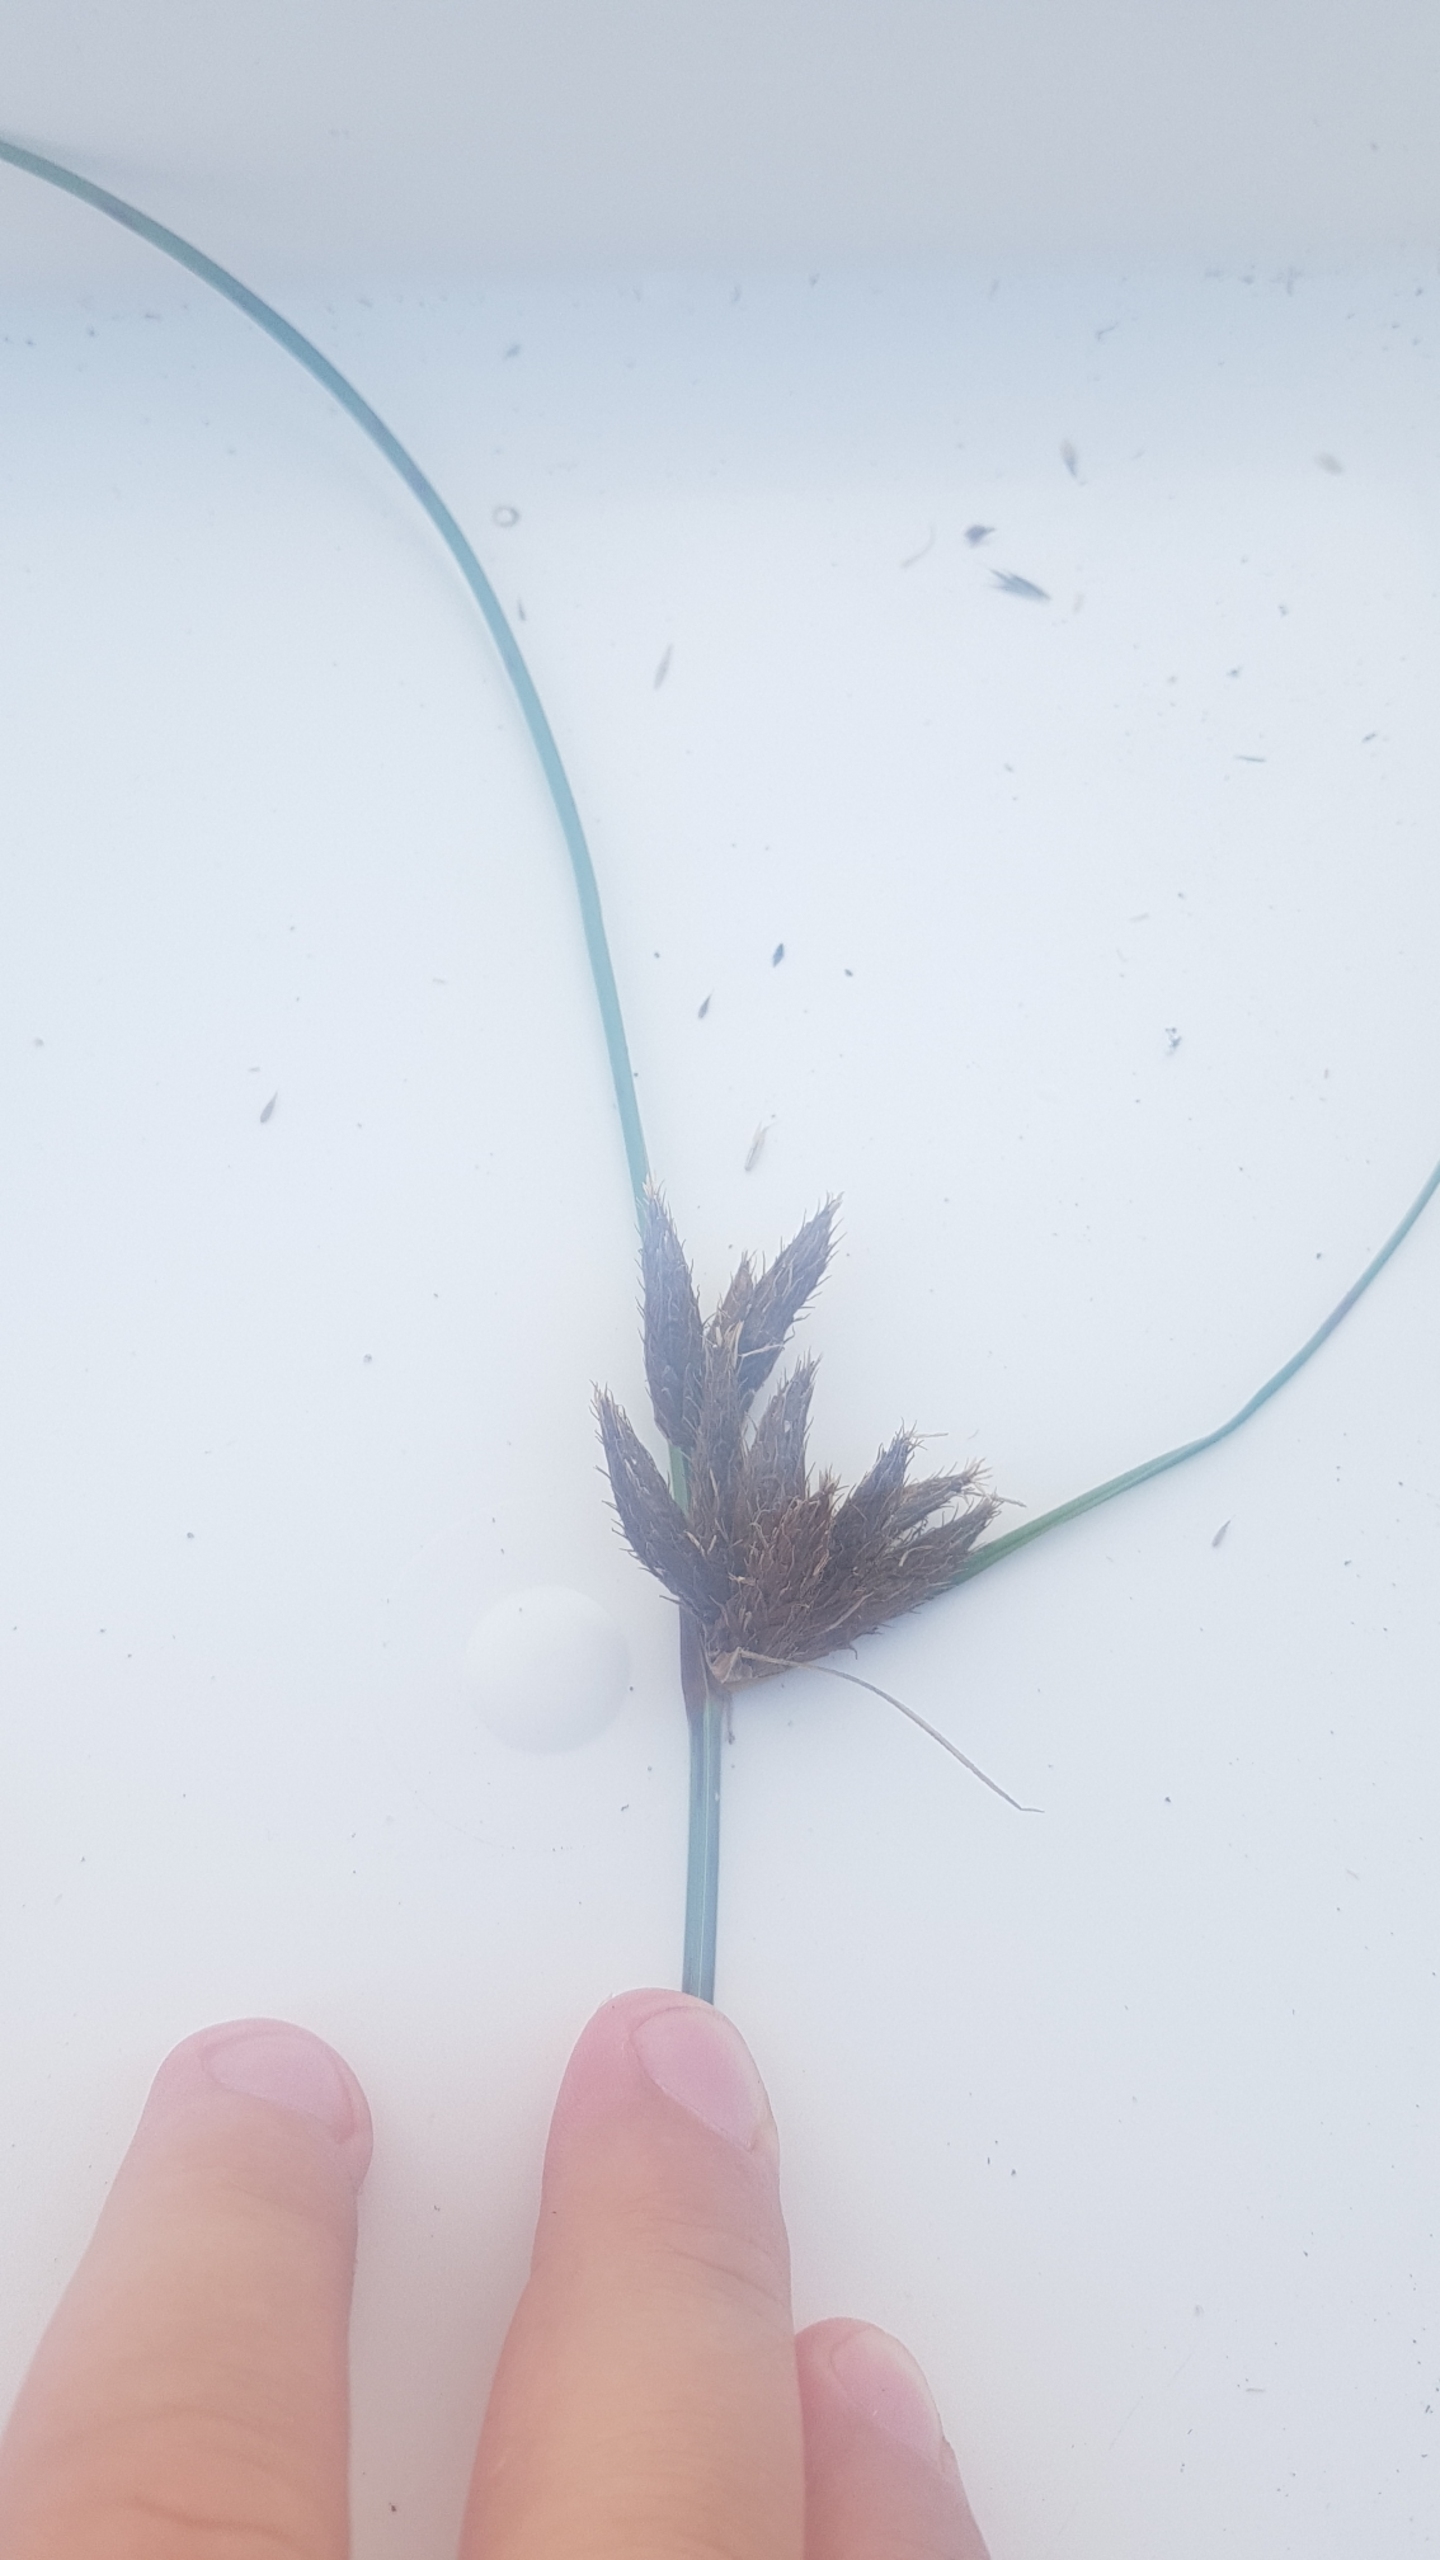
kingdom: Plantae
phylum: Tracheophyta
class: Liliopsida
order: Poales
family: Cyperaceae
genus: Bolboschoenus
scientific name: Bolboschoenus maritimus
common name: Strand-kogleaks
